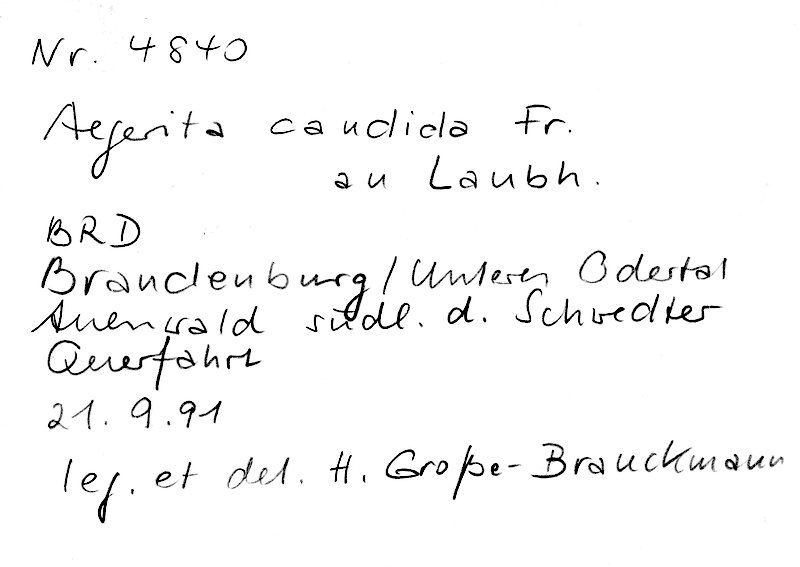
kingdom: Fungi
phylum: Basidiomycota
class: Agaricomycetes
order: Polyporales
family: Meruliaceae
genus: Bulbillomyces
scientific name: Bulbillomyces farinosus
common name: Couscous crust
